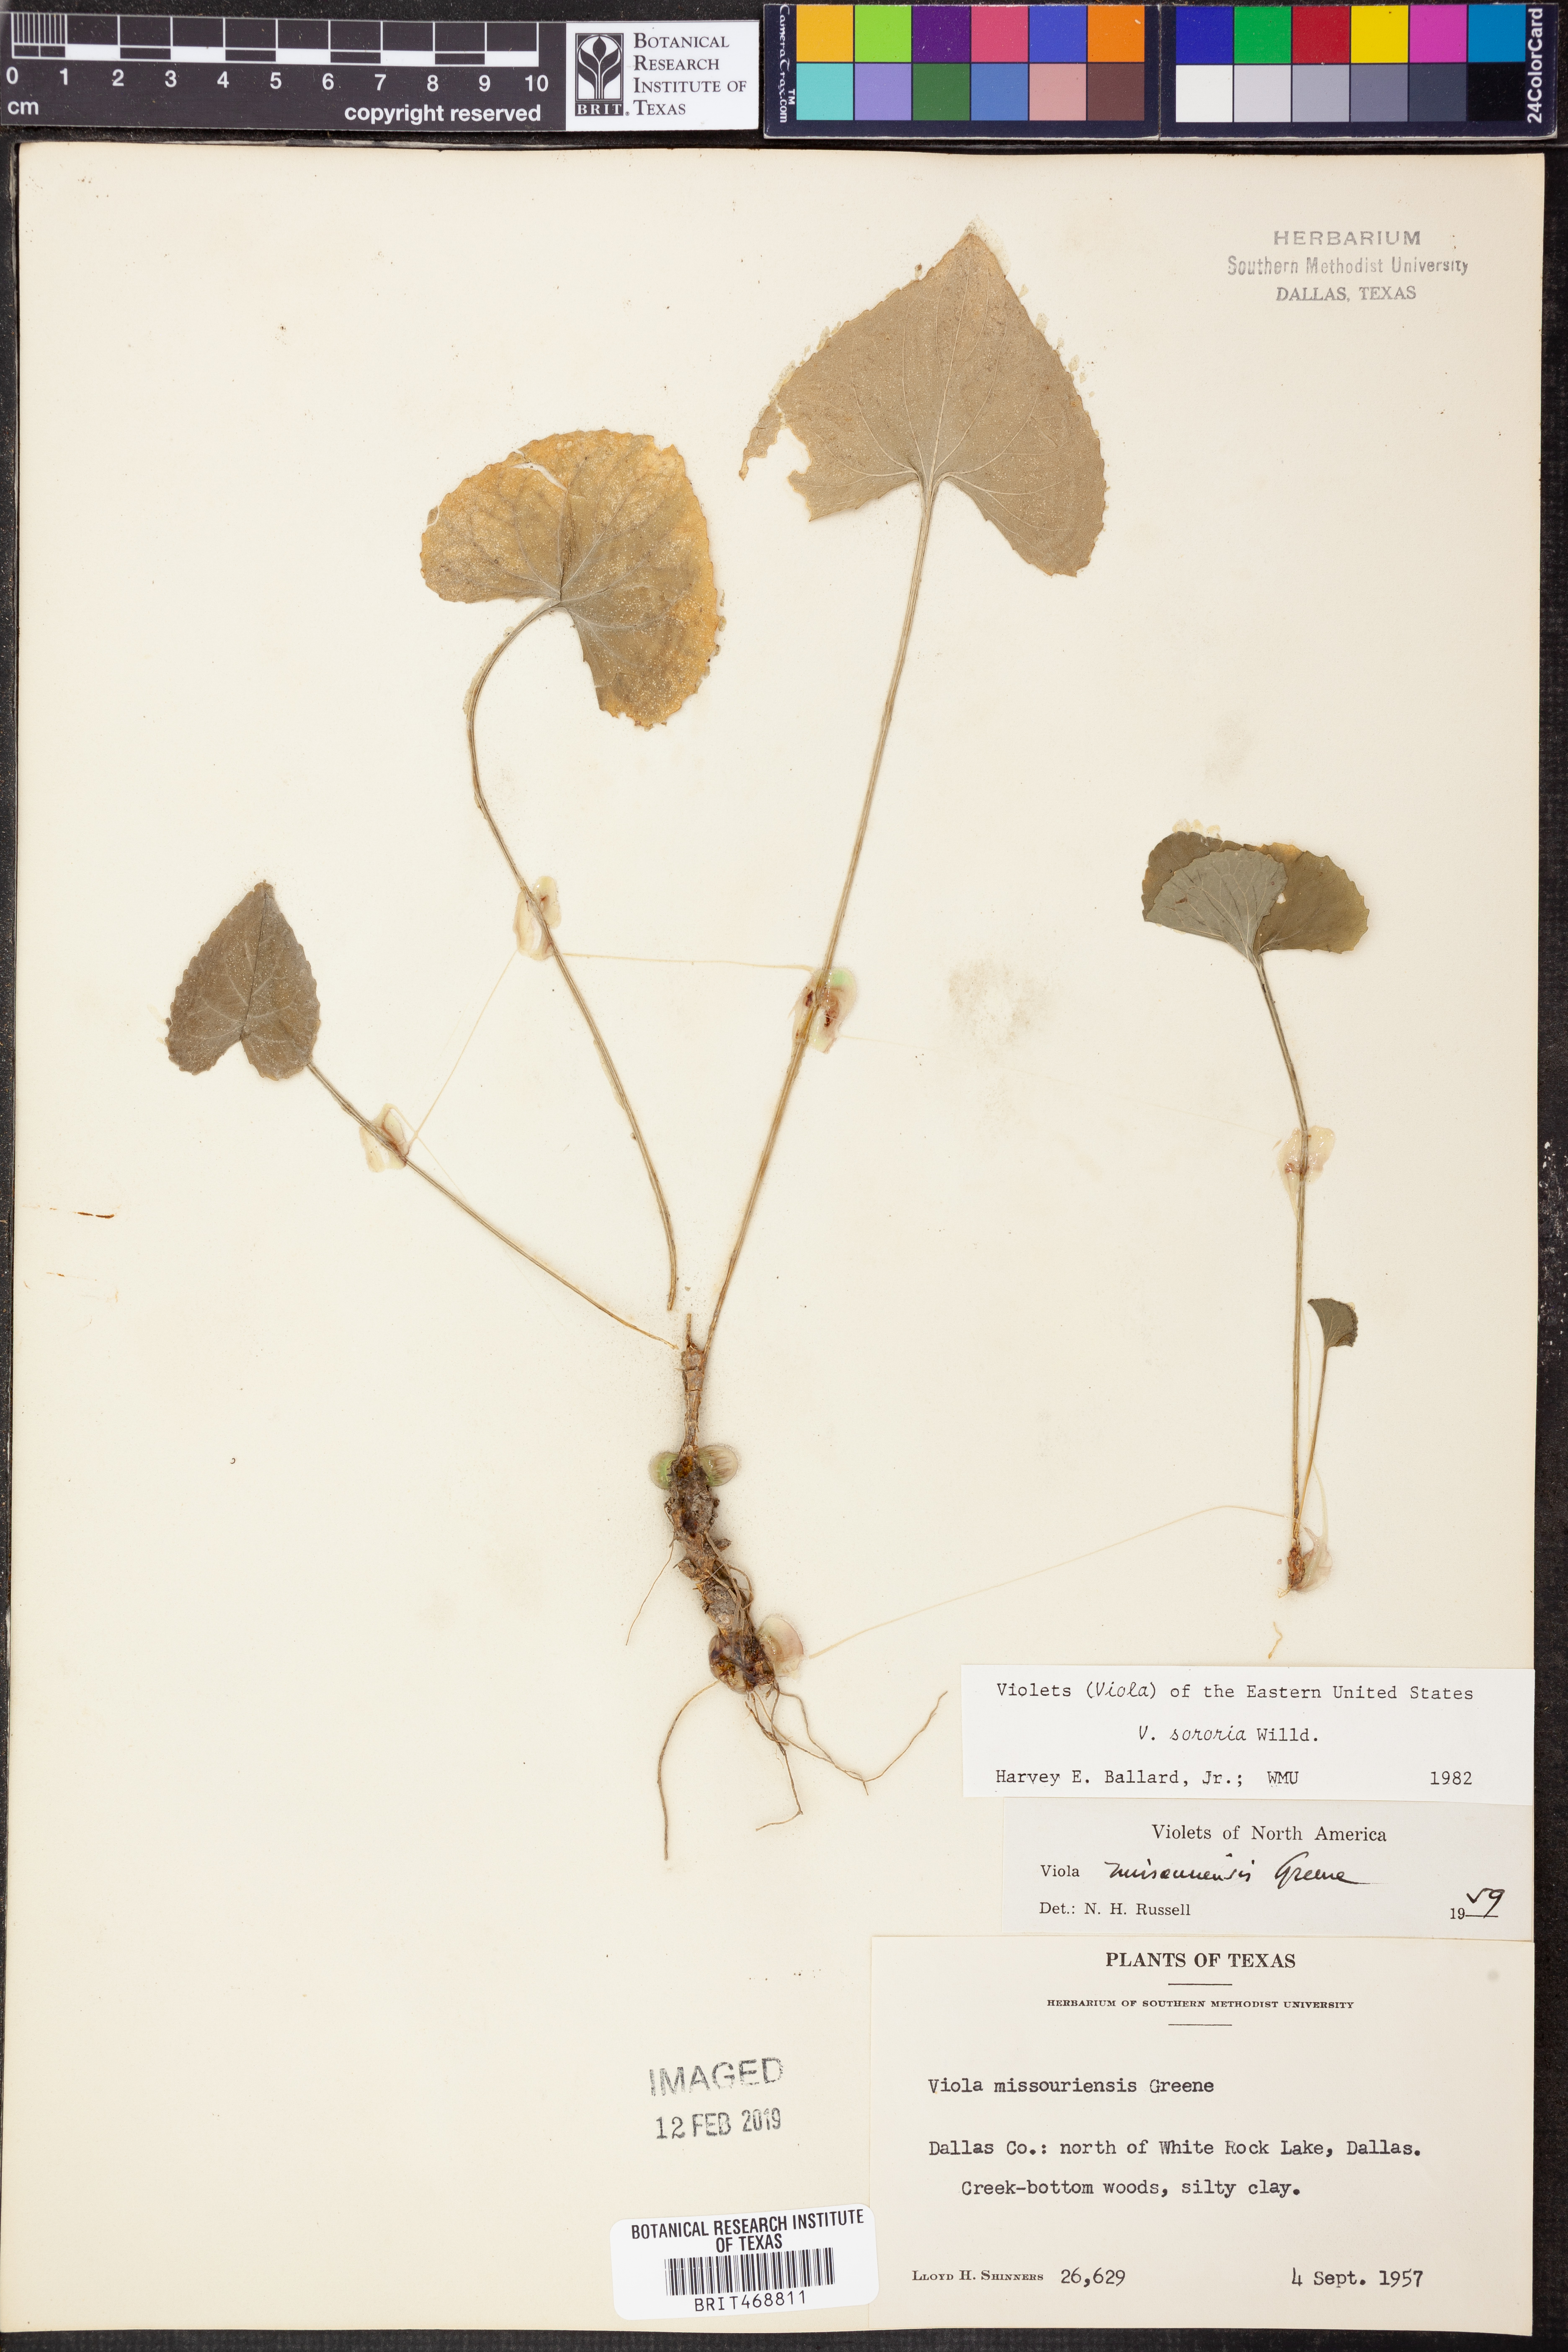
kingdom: Plantae
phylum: Tracheophyta
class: Magnoliopsida
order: Malpighiales
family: Violaceae
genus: Viola
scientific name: Viola sororia
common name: Dooryard violet
